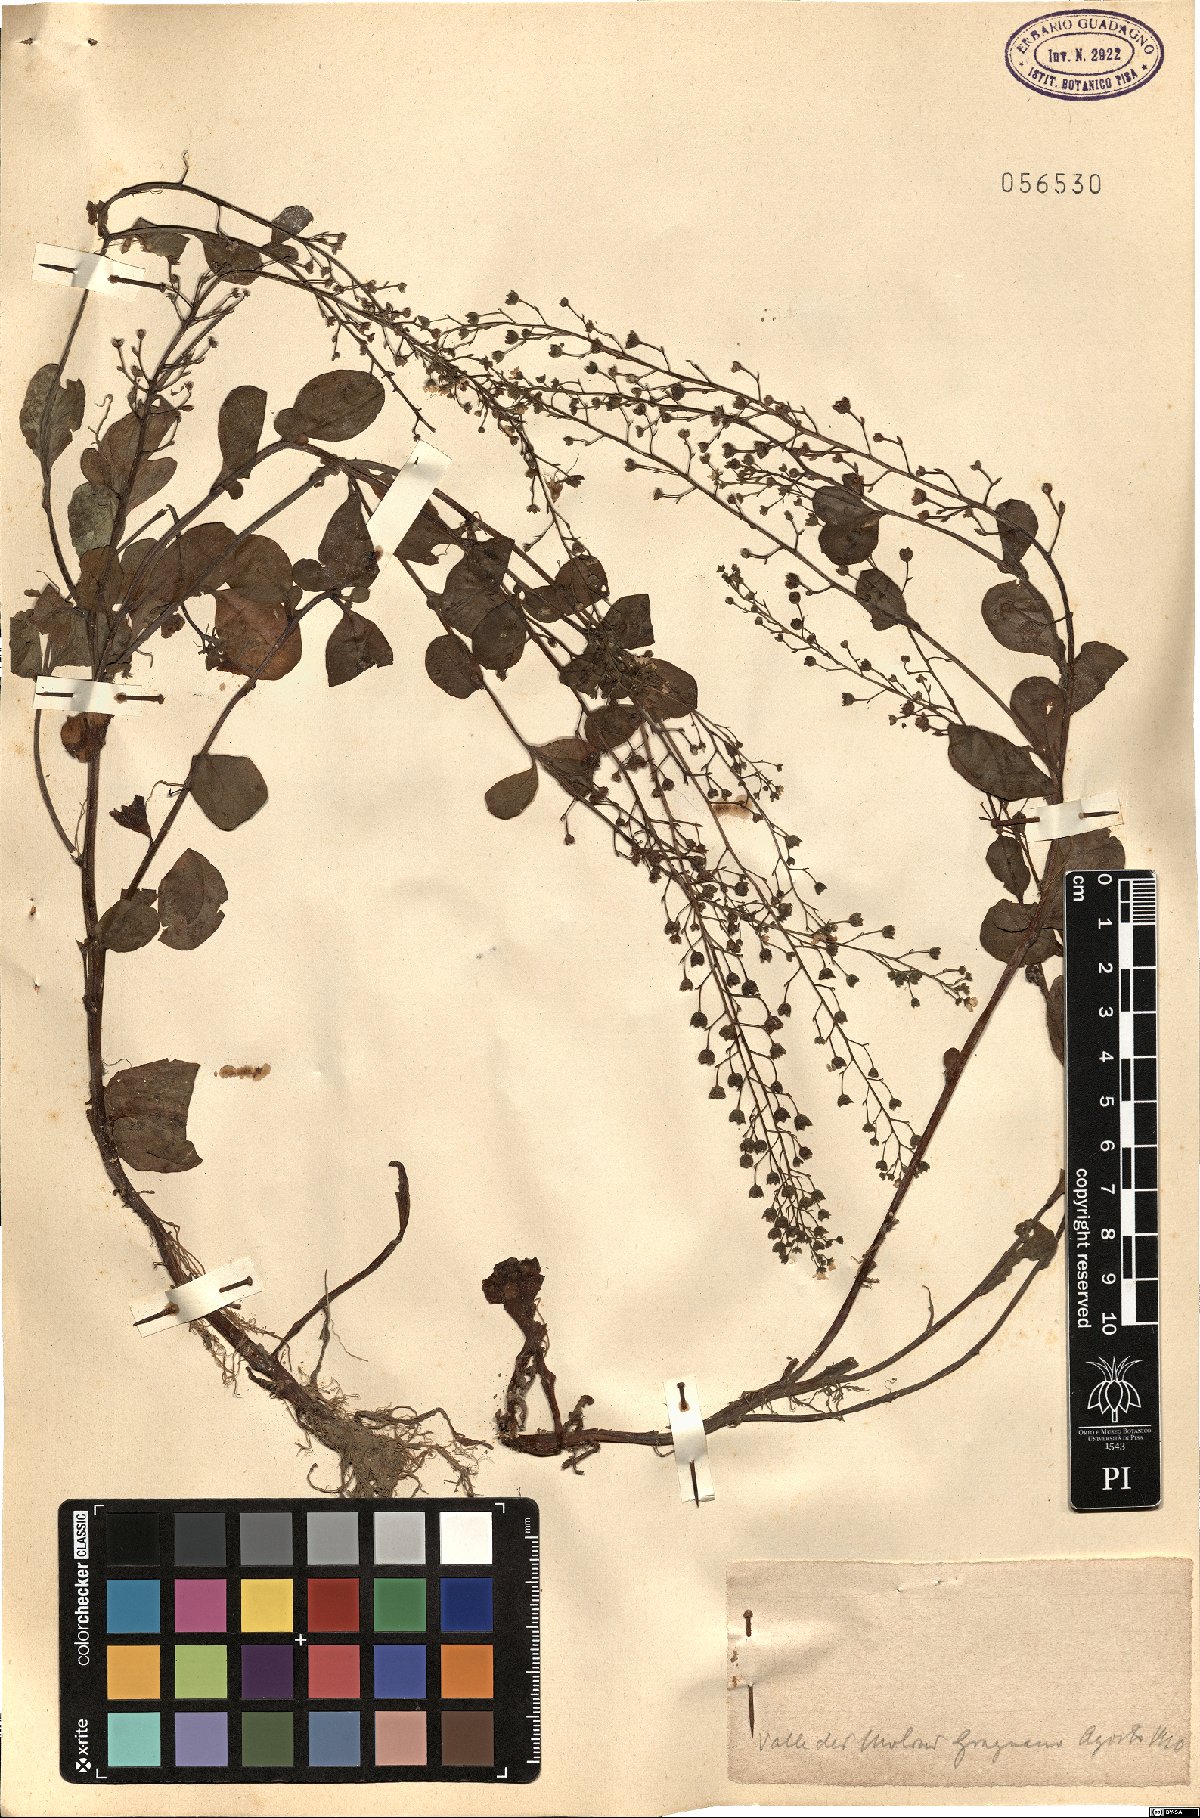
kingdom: Plantae
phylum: Tracheophyta
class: Magnoliopsida
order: Ericales
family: Primulaceae
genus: Samolus
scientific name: Samolus
